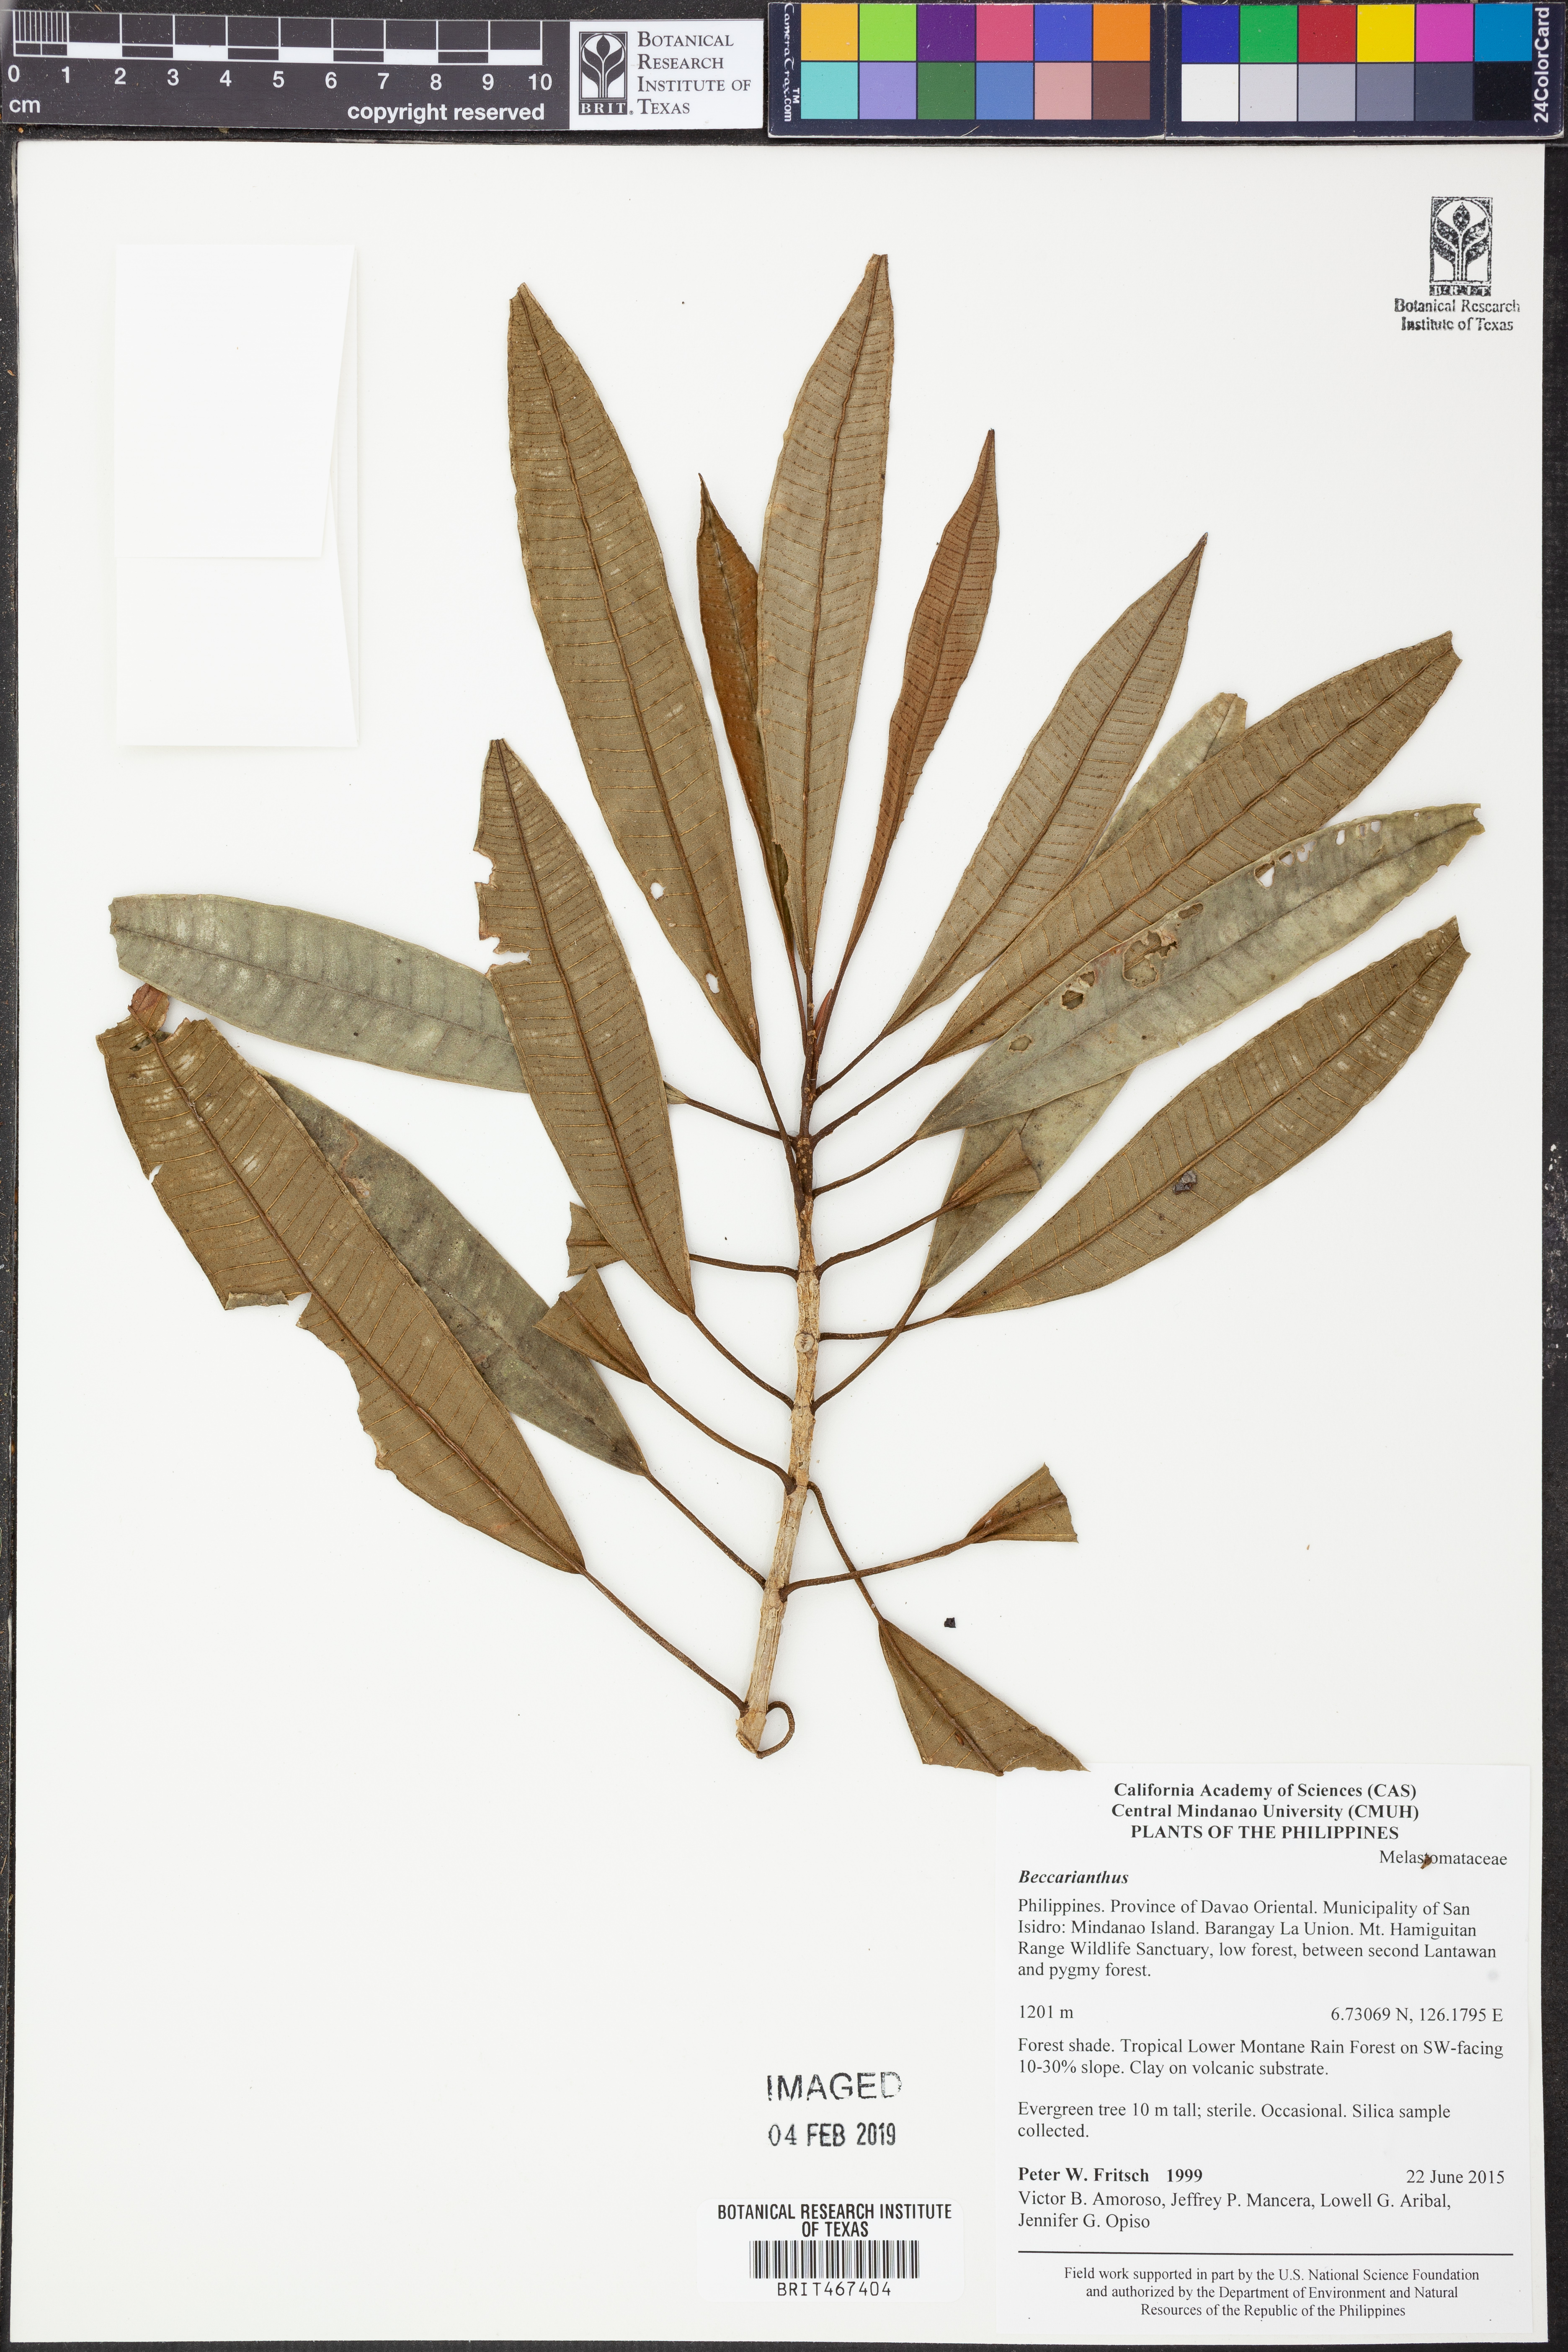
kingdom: Plantae
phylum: Tracheophyta
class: Magnoliopsida
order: Myrtales
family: Melastomataceae
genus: Beccarianthus
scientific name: Beccarianthus
